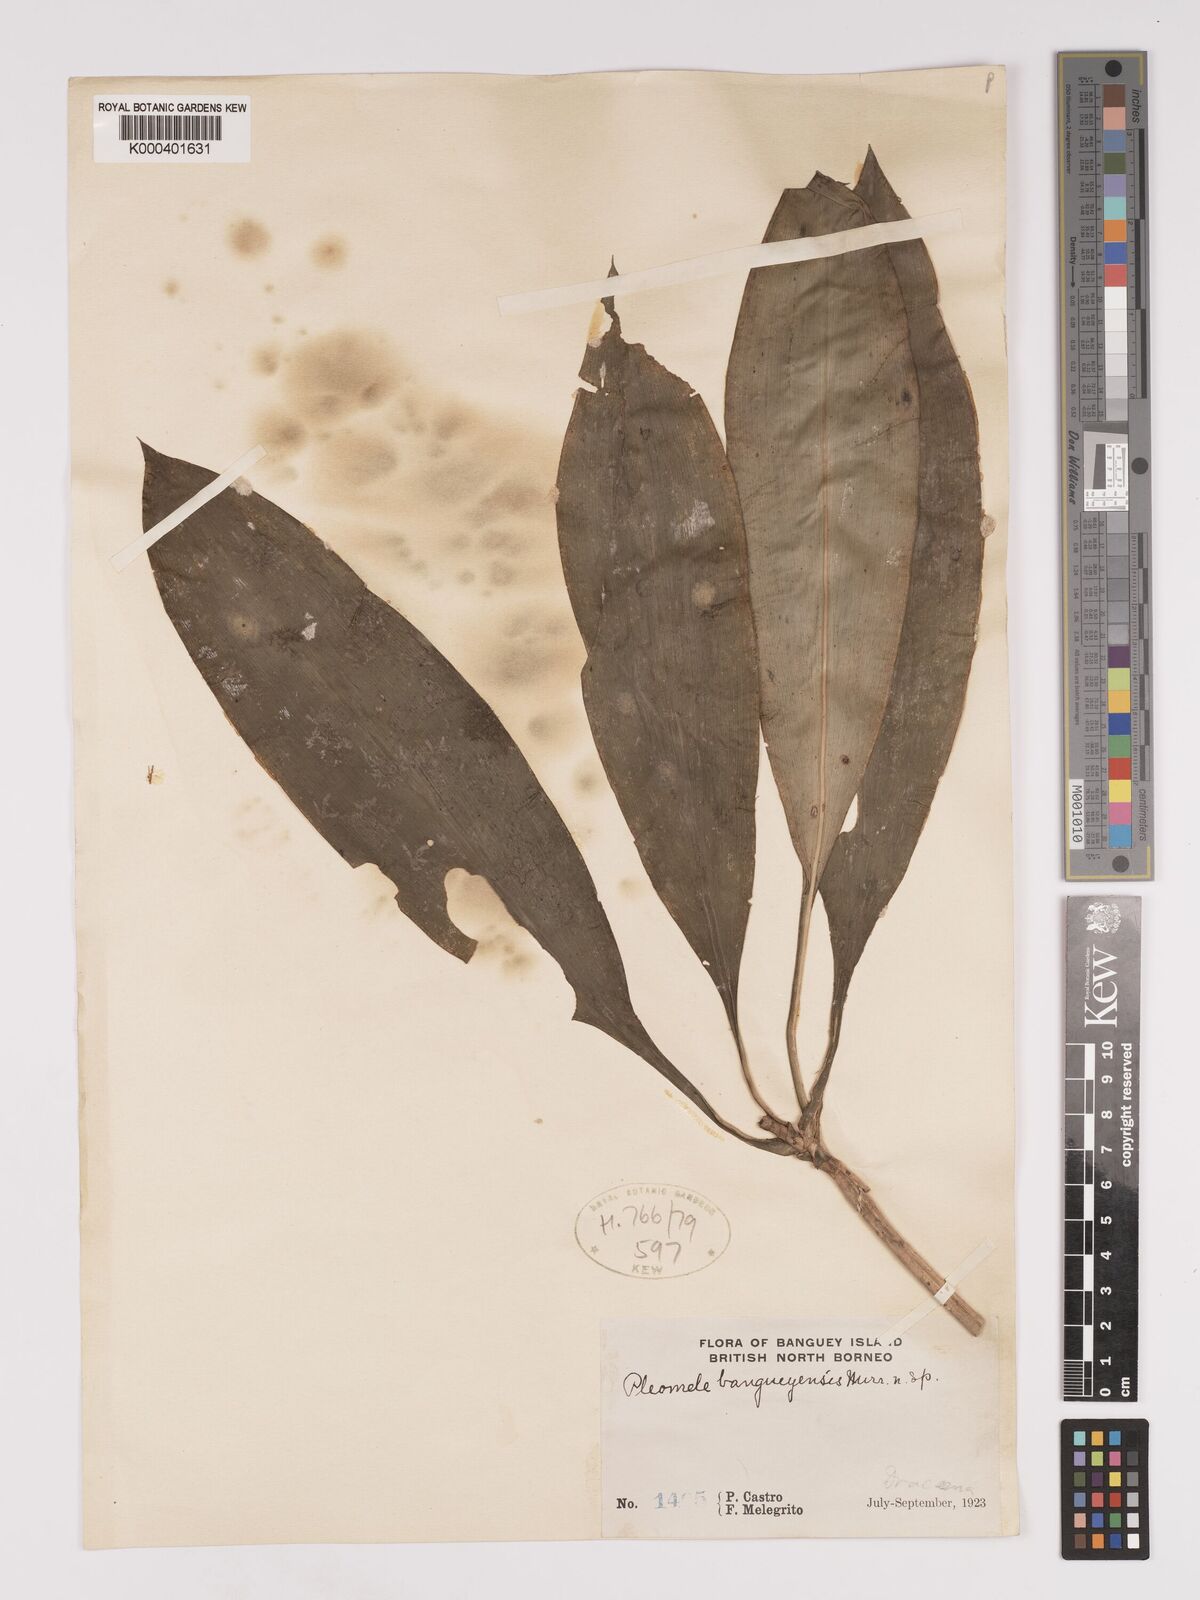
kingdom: Plantae
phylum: Tracheophyta
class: Liliopsida
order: Asparagales
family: Asparagaceae
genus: Dracaena
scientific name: Dracaena
